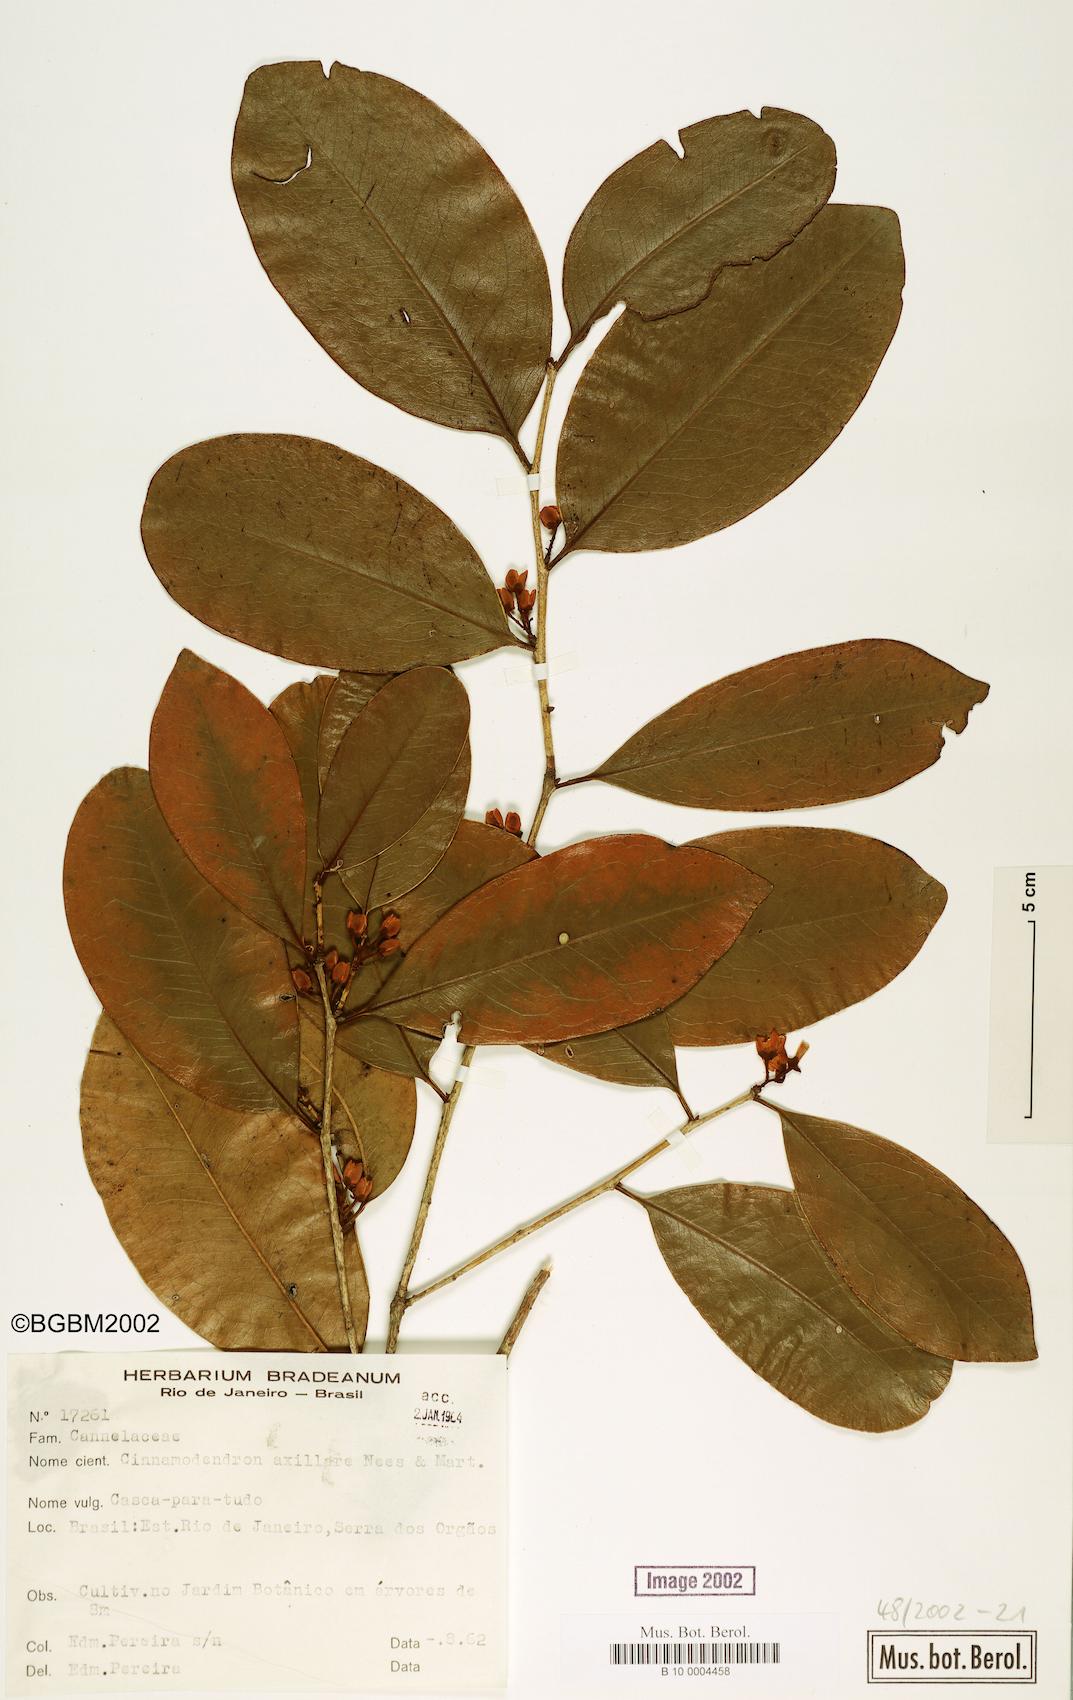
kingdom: Plantae
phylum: Tracheophyta
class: Magnoliopsida
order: Canellales
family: Canellaceae
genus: Cinnamodendron
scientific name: Cinnamodendron axillare
